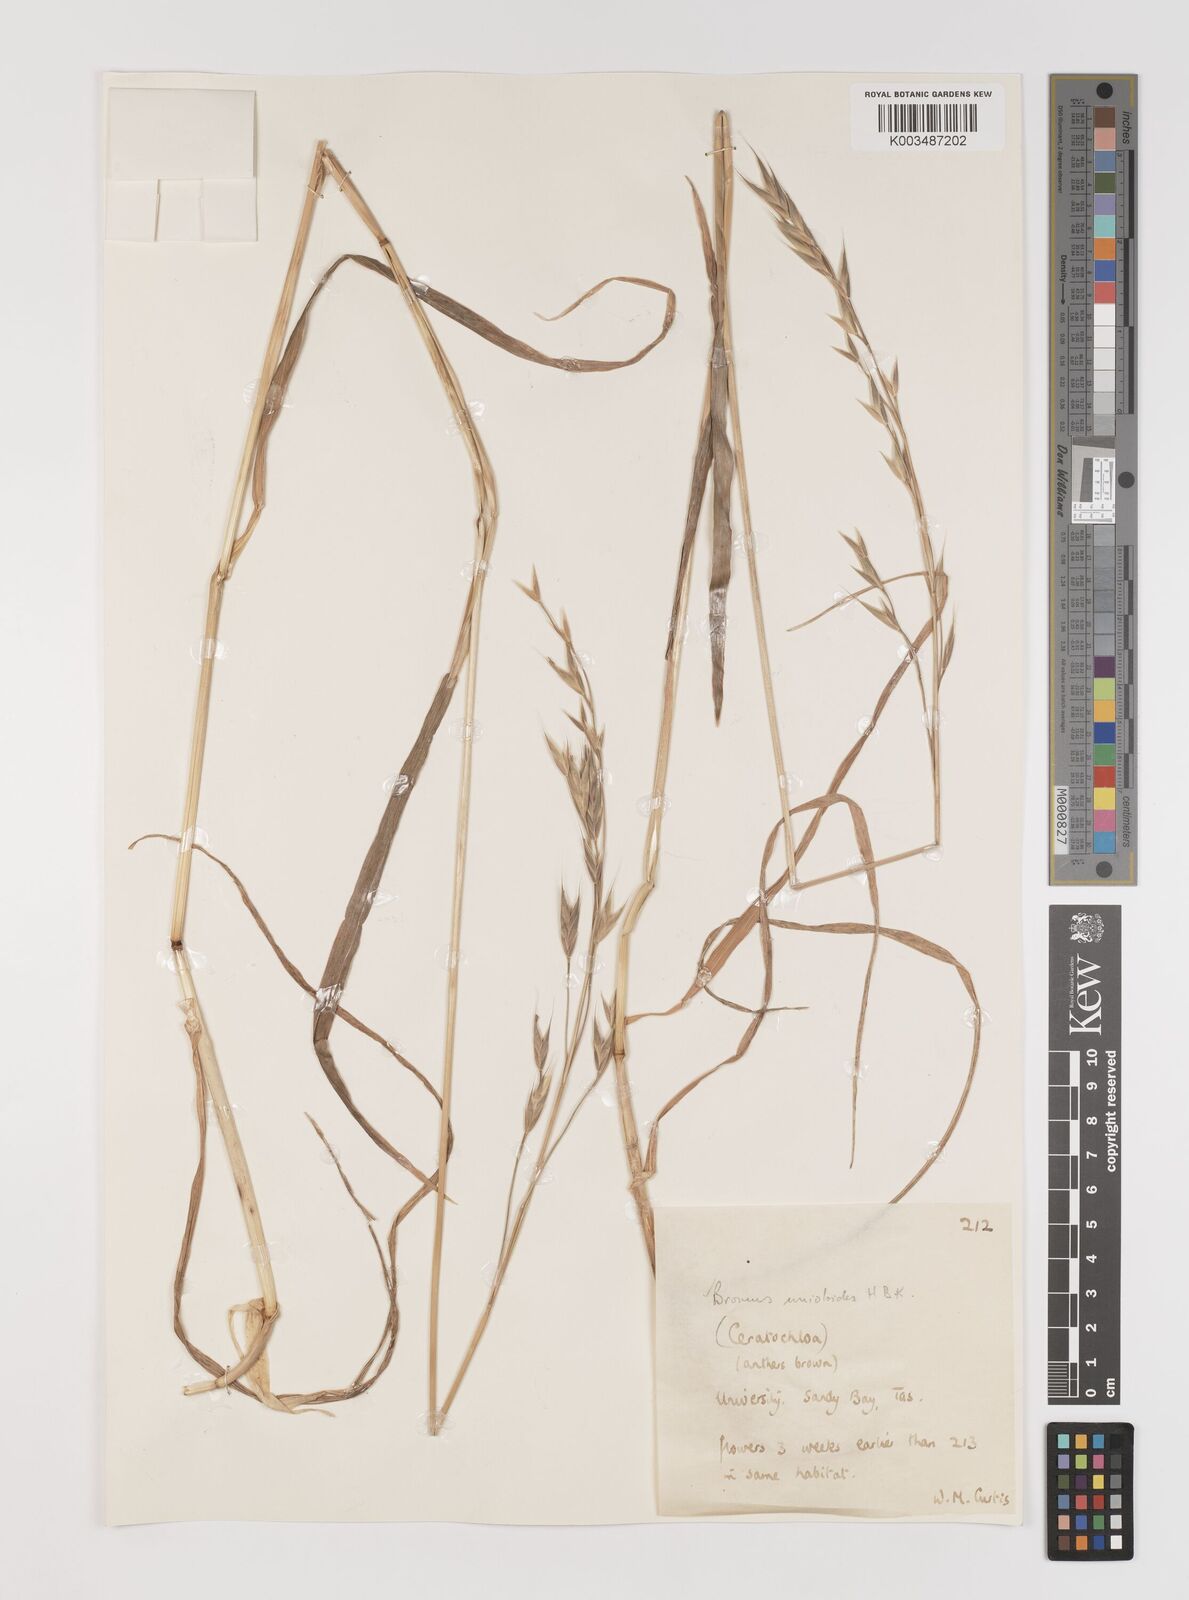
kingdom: Plantae
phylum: Tracheophyta
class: Liliopsida
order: Poales
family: Poaceae
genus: Bromus
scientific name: Bromus marginatus
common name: Western brome
